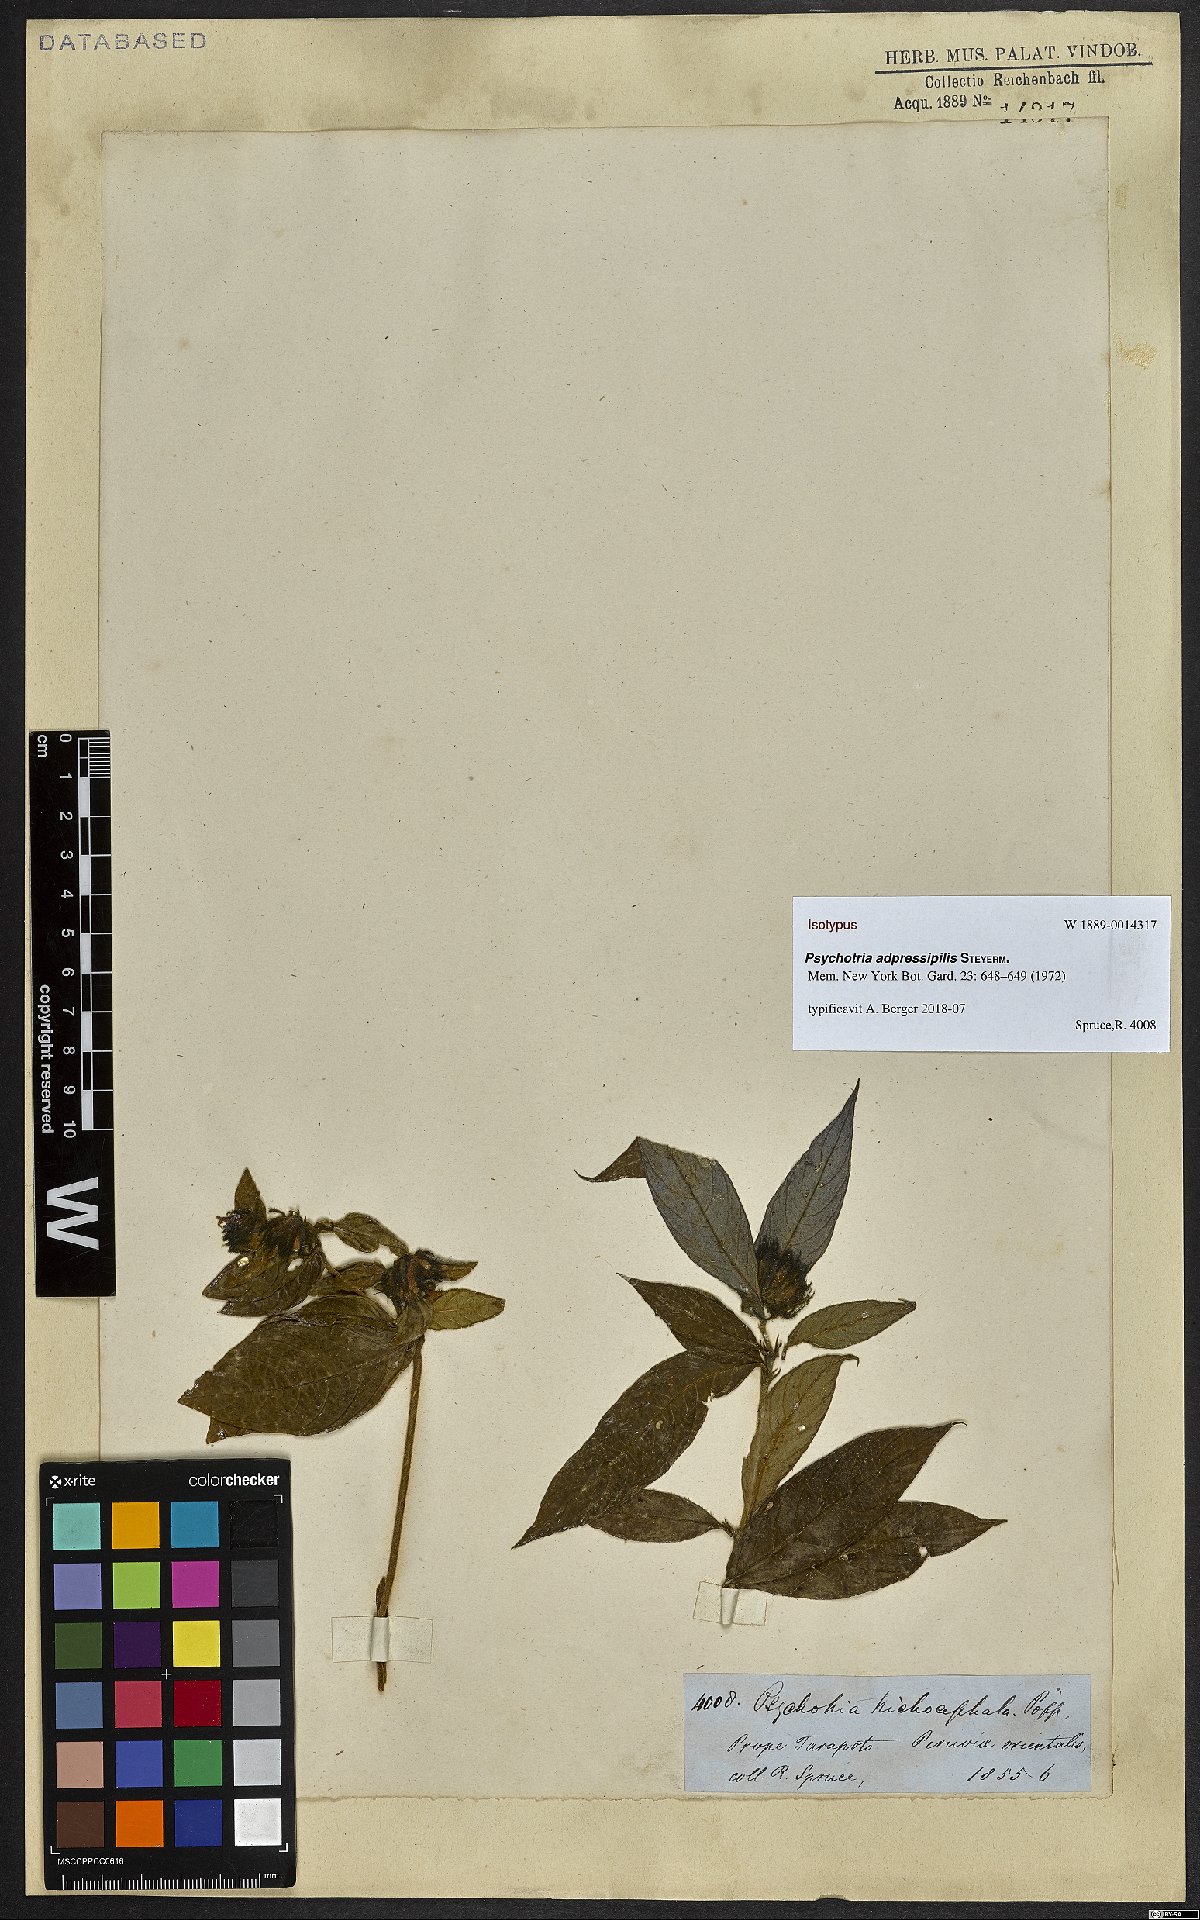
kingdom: Plantae
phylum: Tracheophyta
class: Magnoliopsida
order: Gentianales
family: Rubiaceae
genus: Palicourea
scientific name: Palicourea adpressipilis
